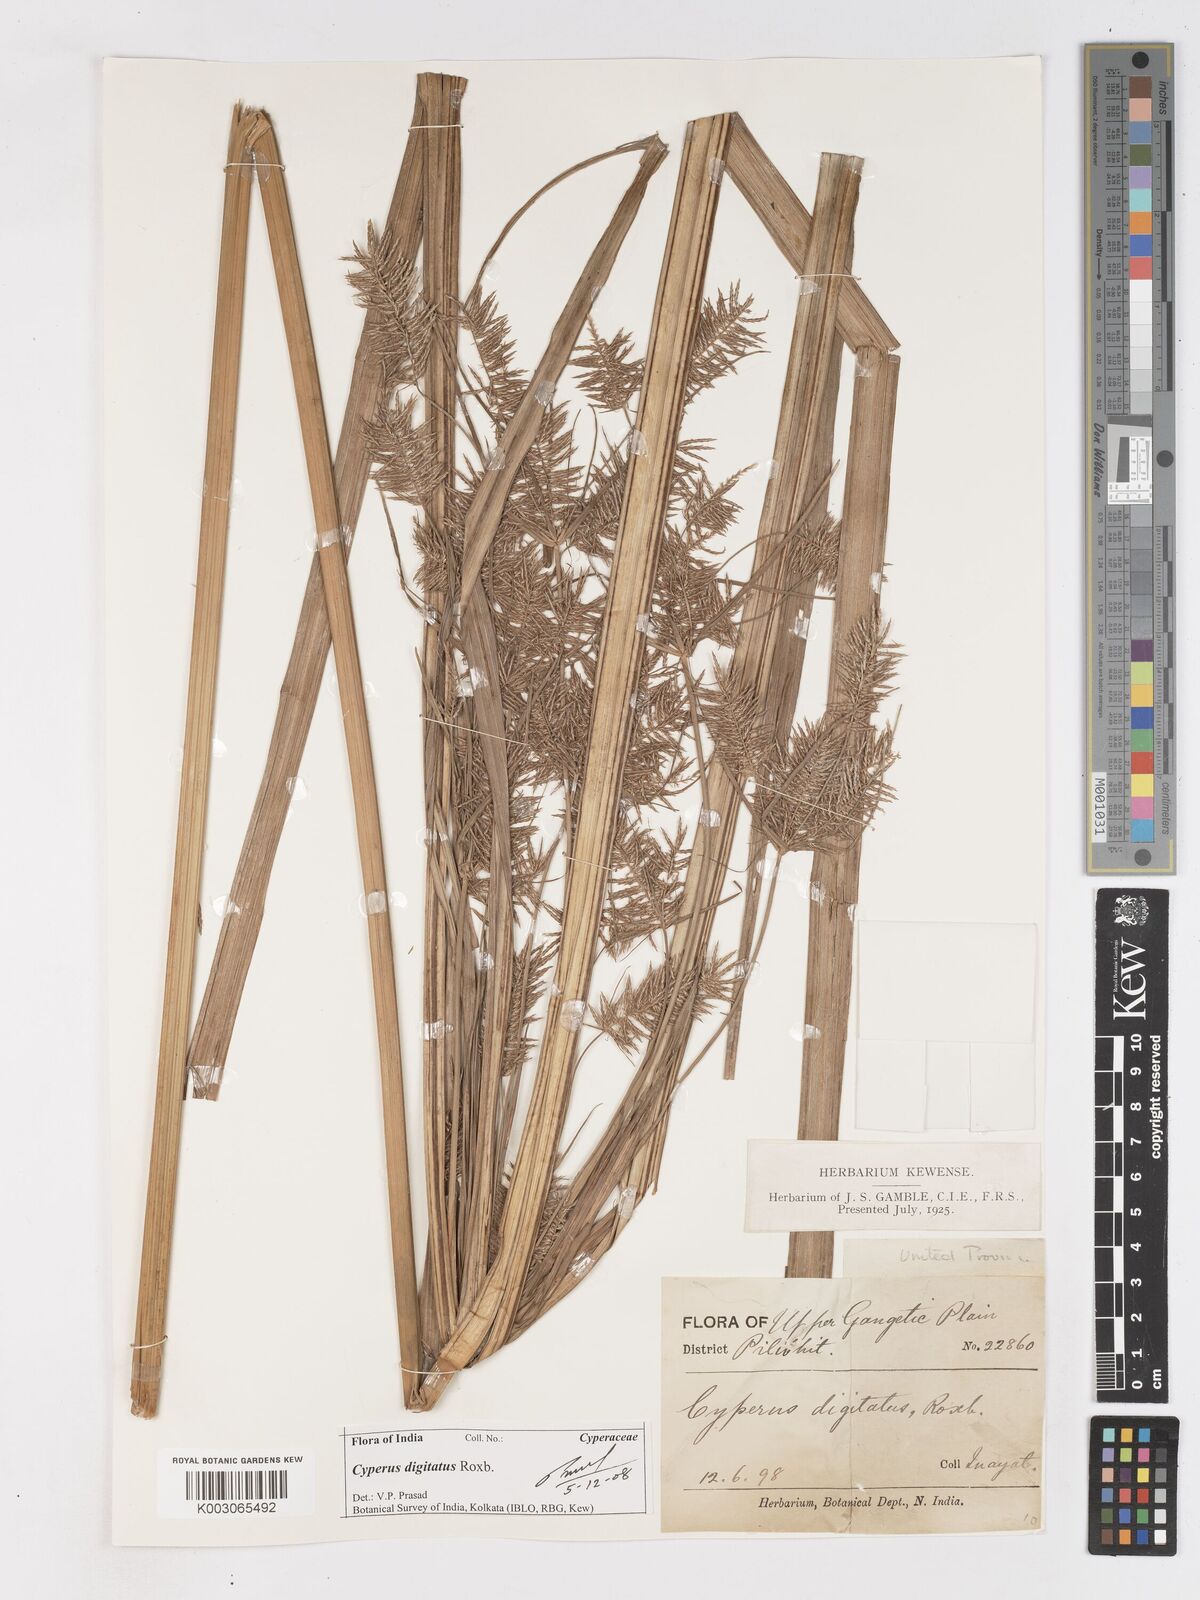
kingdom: Plantae
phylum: Tracheophyta
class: Liliopsida
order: Poales
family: Cyperaceae
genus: Cyperus
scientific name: Cyperus digitatus
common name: Finger flatsedge
